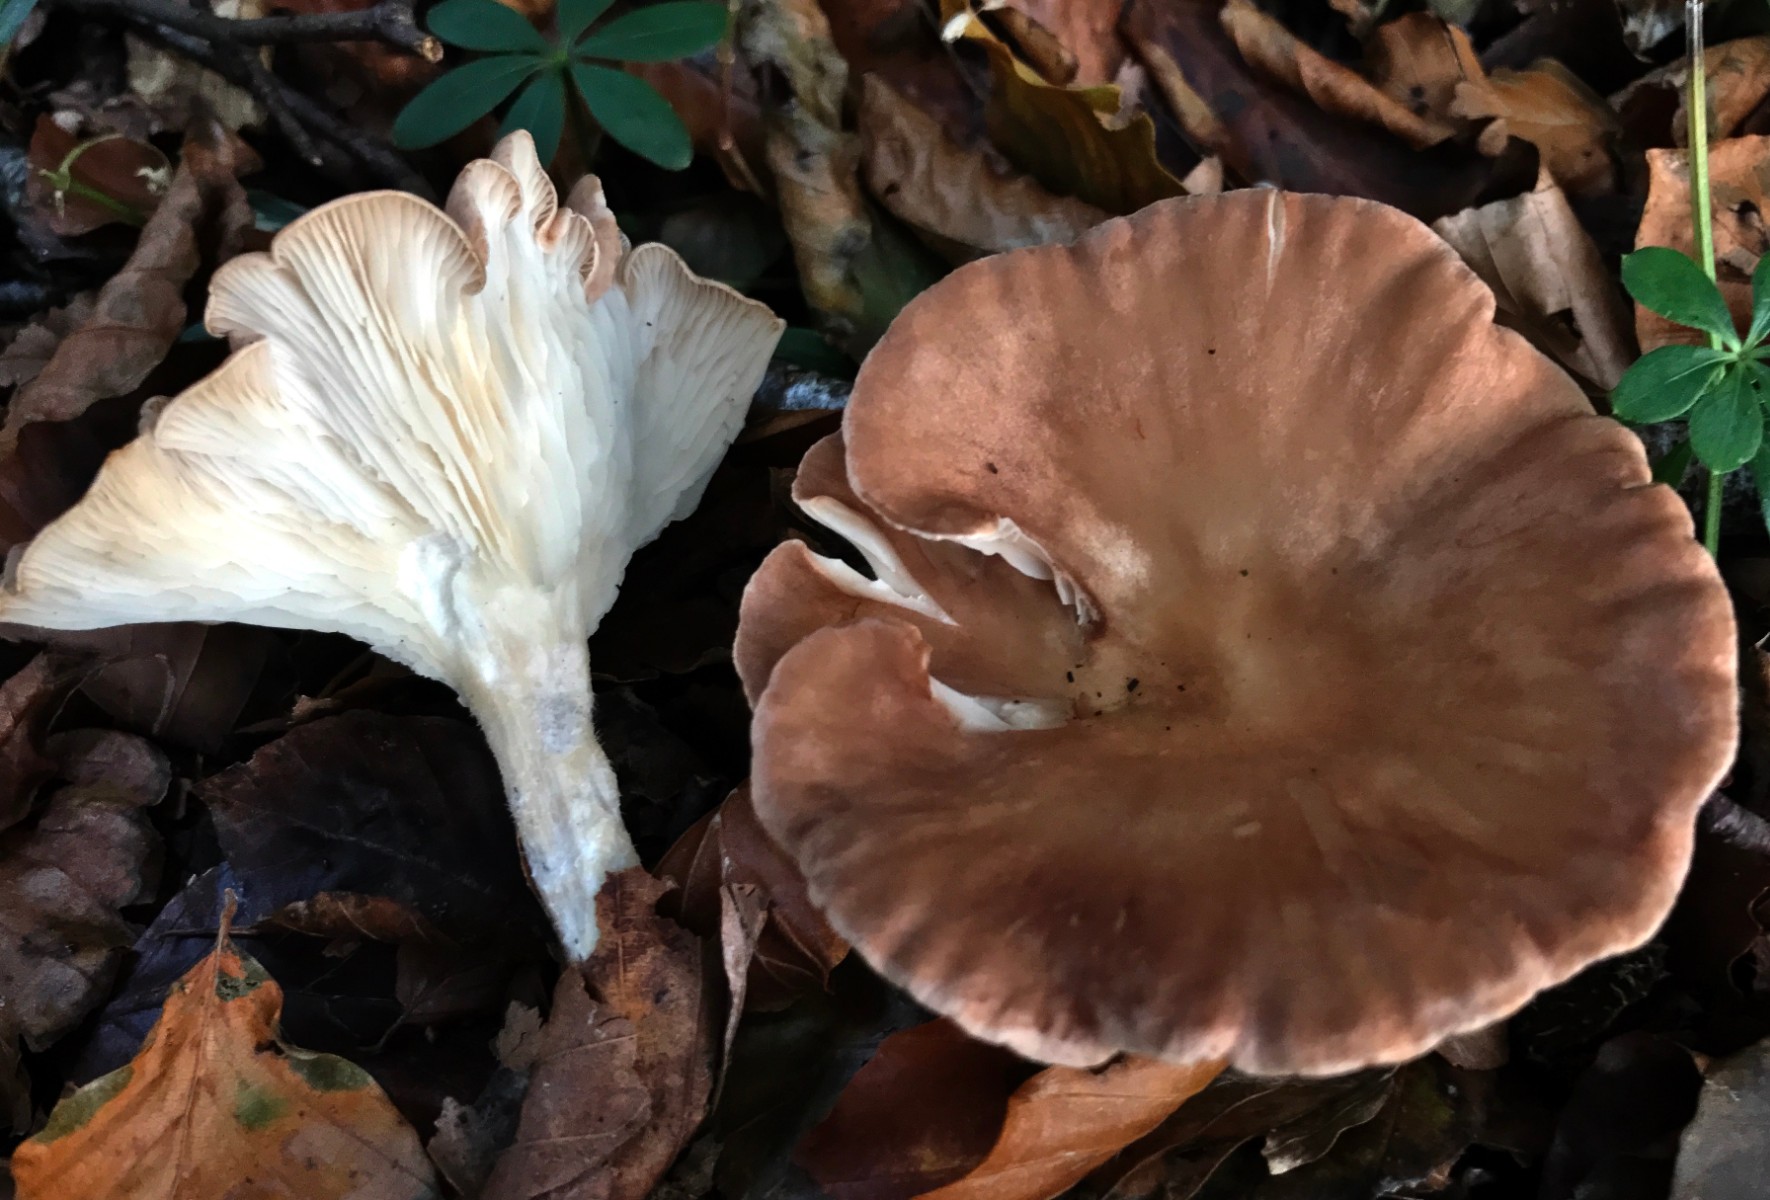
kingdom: Fungi
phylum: Basidiomycota
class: Agaricomycetes
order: Agaricales
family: Tricholomataceae
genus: Infundibulicybe
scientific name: Infundibulicybe gibba
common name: almindelig tragthat
